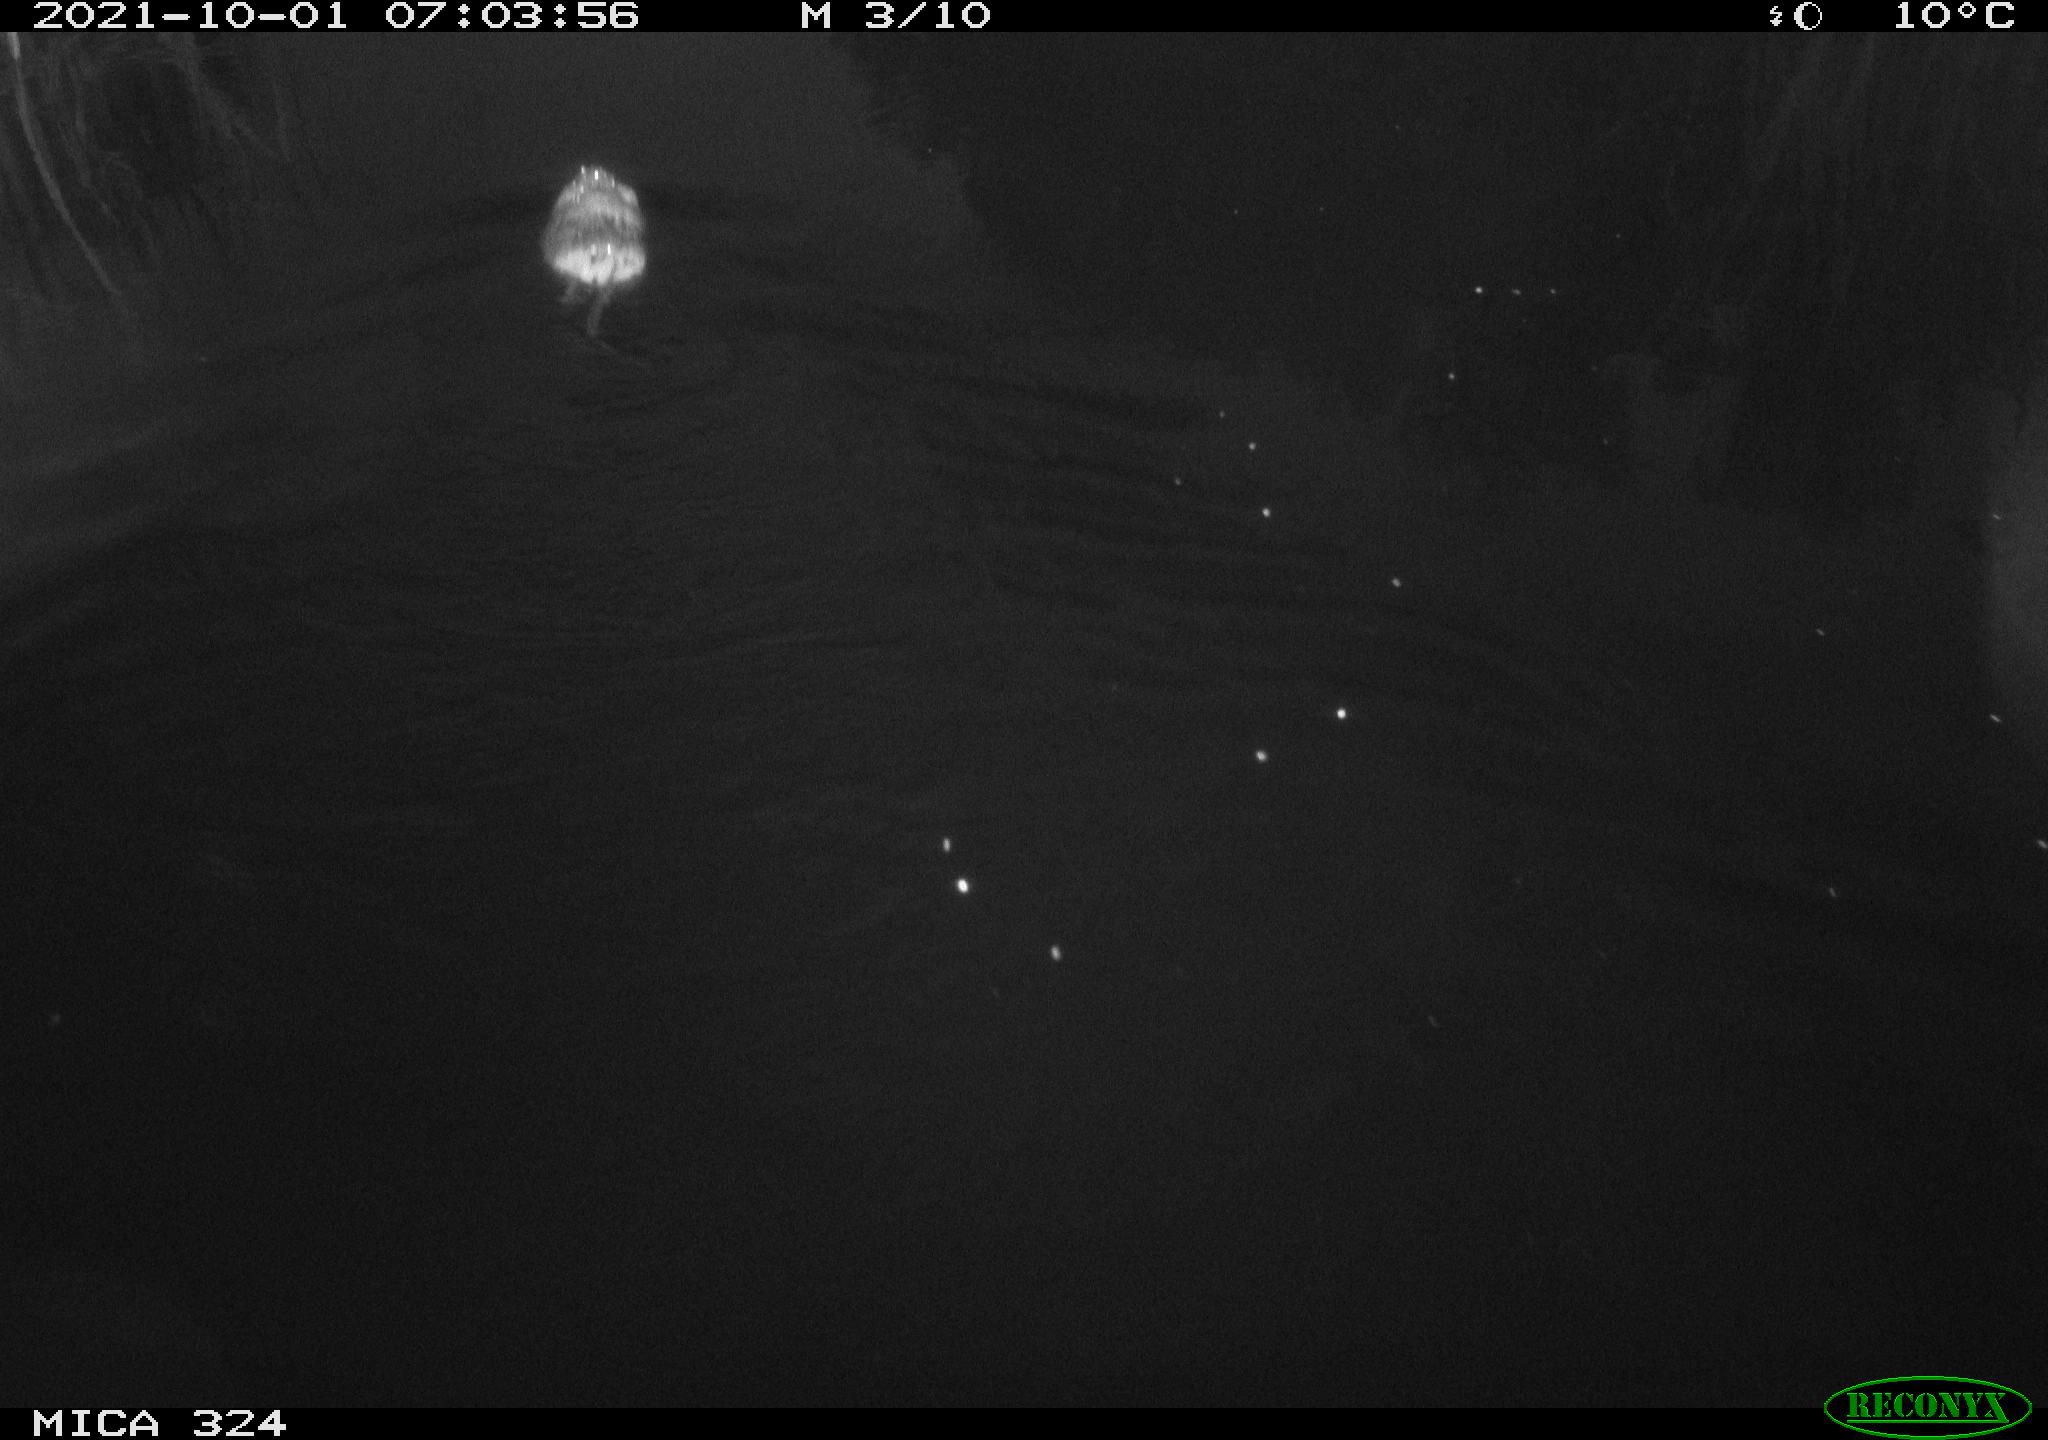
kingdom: Animalia
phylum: Chordata
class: Mammalia
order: Rodentia
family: Cricetidae
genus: Ondatra
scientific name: Ondatra zibethicus
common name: Muskrat
